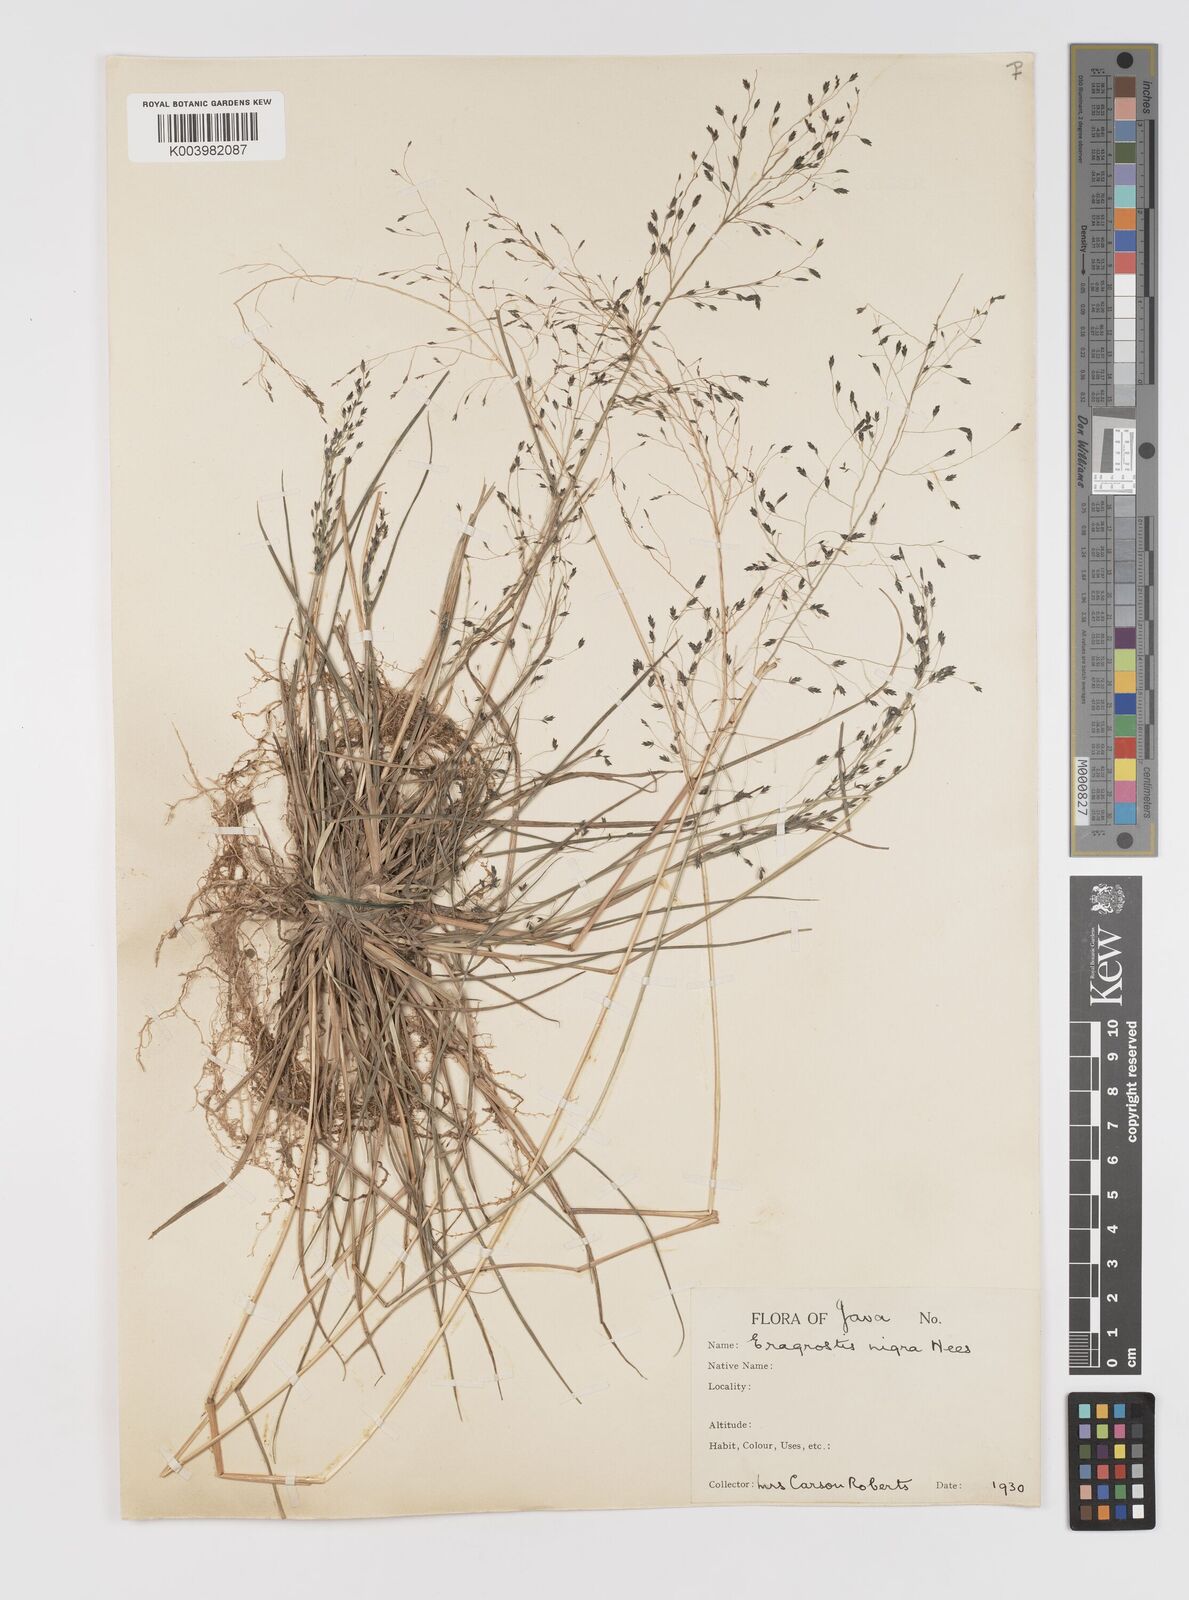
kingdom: Plantae
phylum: Tracheophyta
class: Liliopsida
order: Poales
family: Poaceae
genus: Eragrostis
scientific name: Eragrostis nigra
